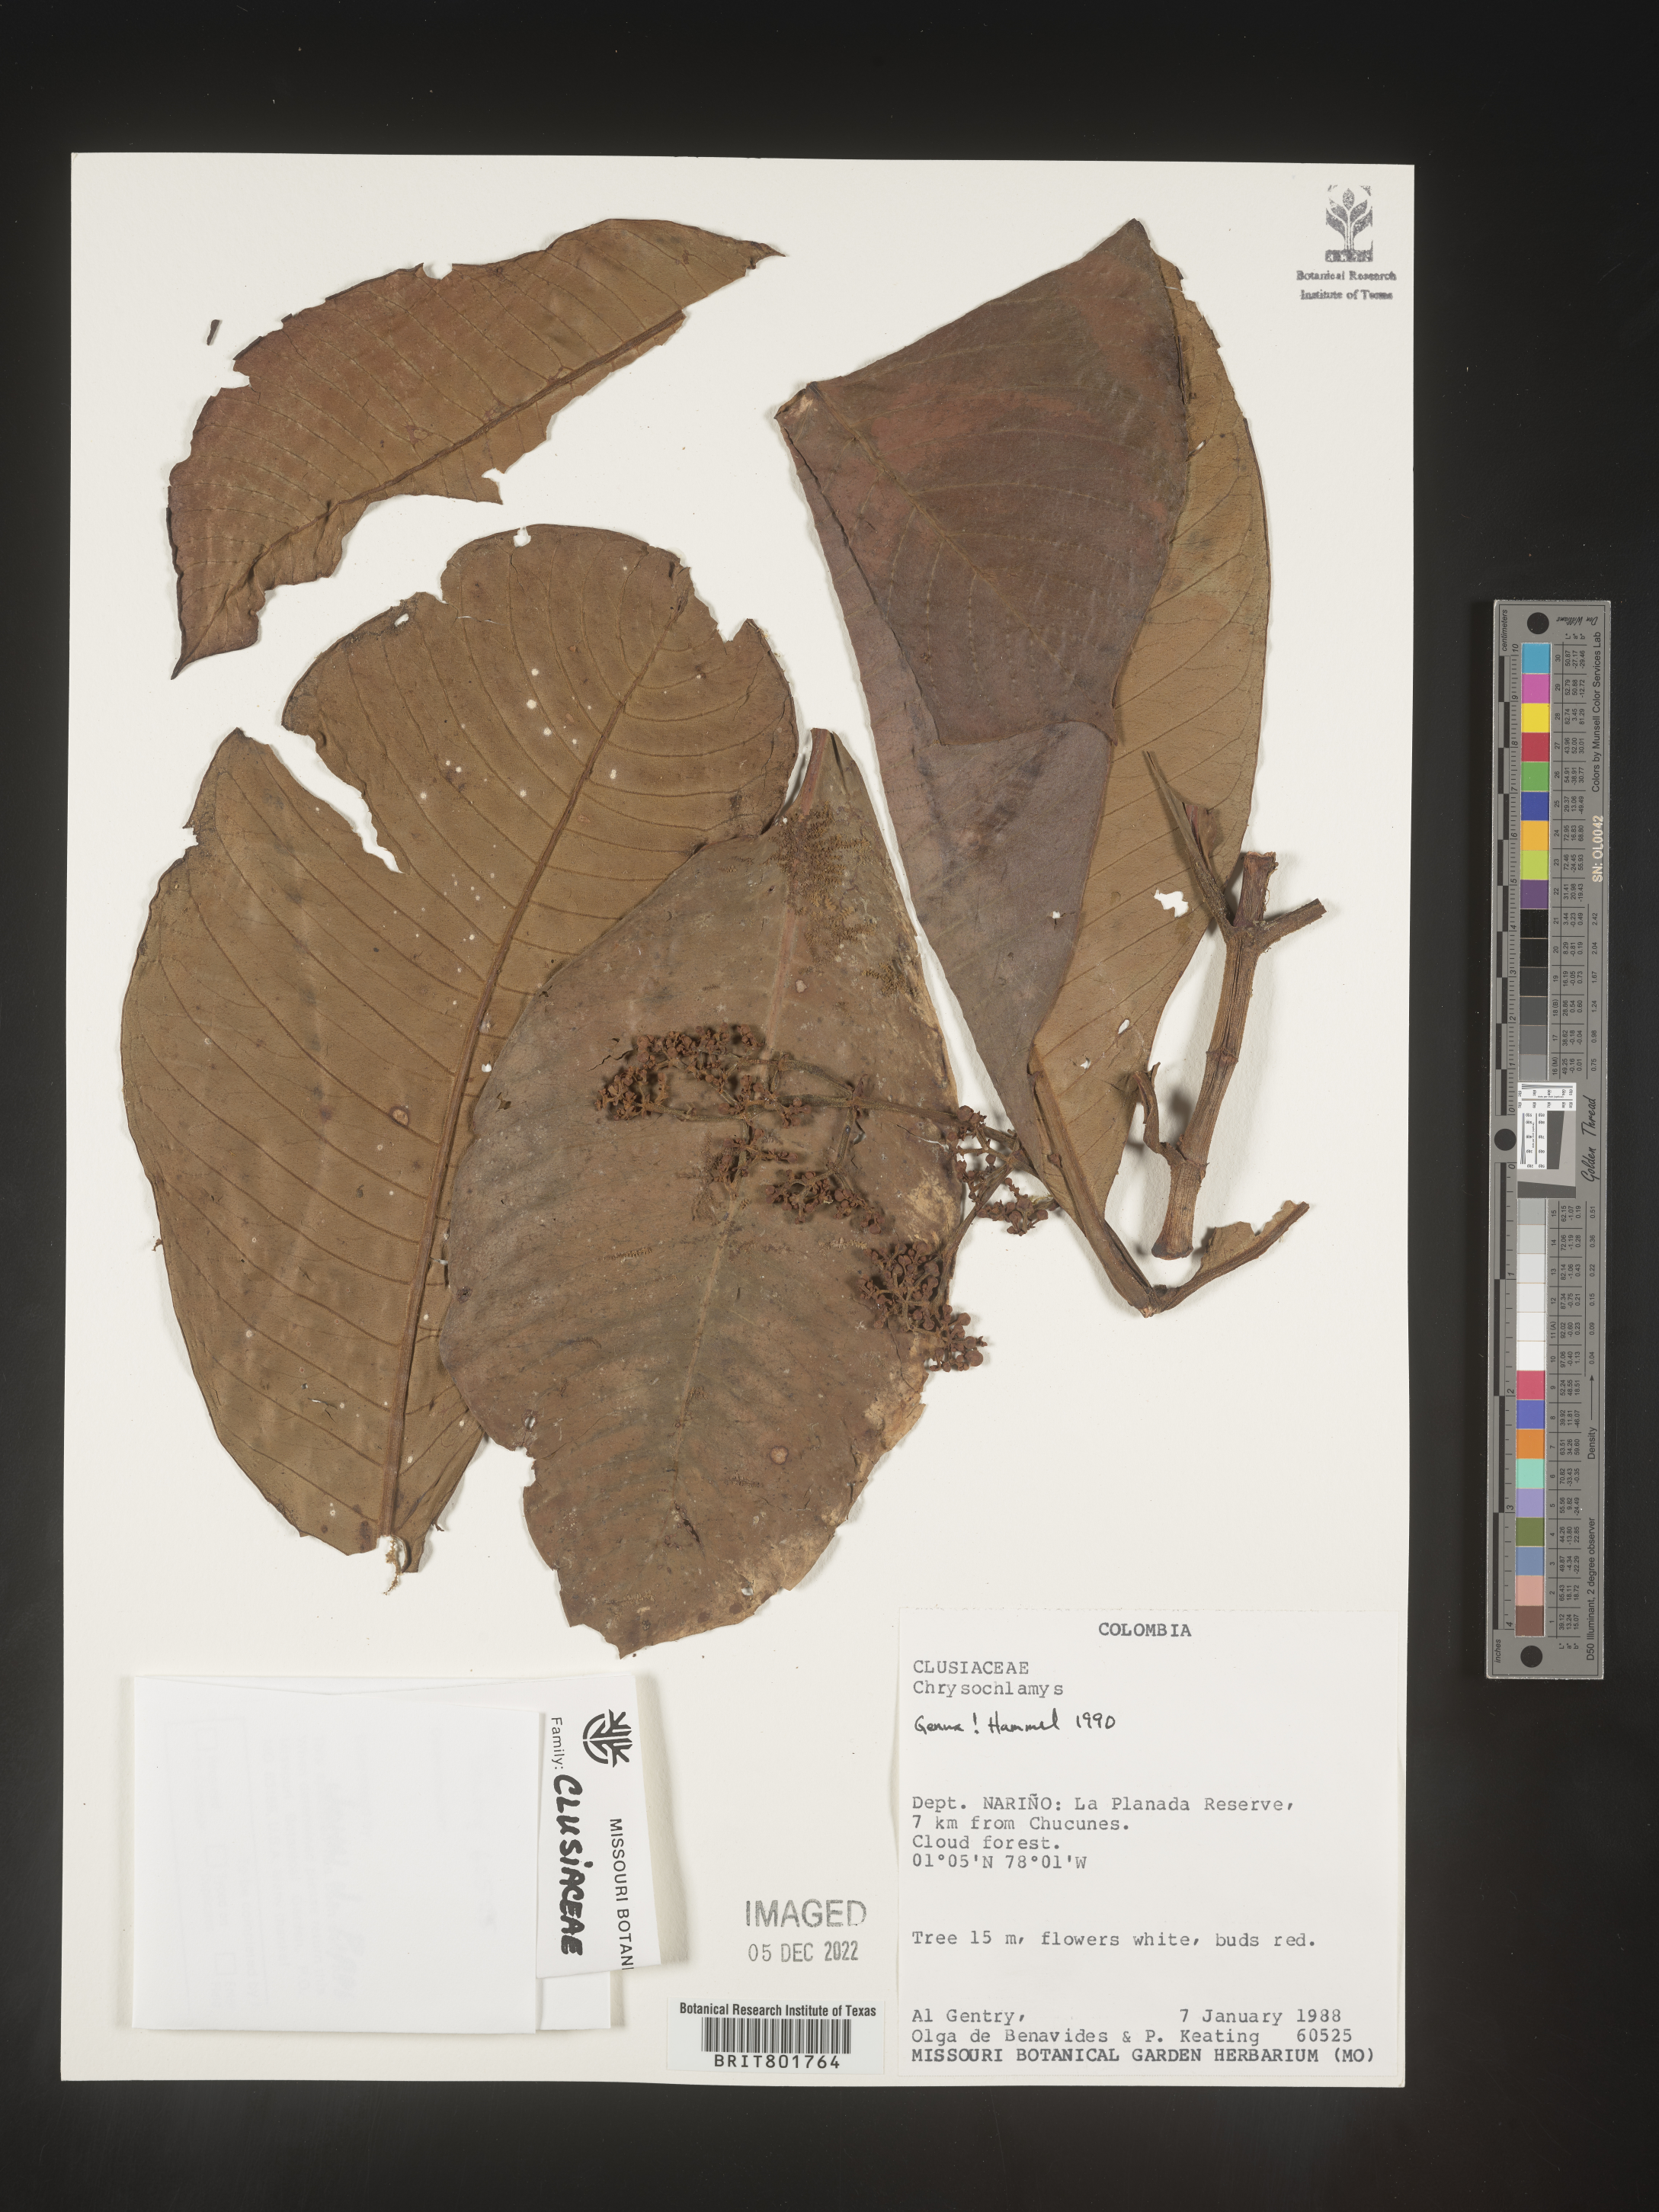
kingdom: Plantae
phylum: Tracheophyta
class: Magnoliopsida
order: Malpighiales
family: Clusiaceae
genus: Chrysochlamys
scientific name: Chrysochlamys
